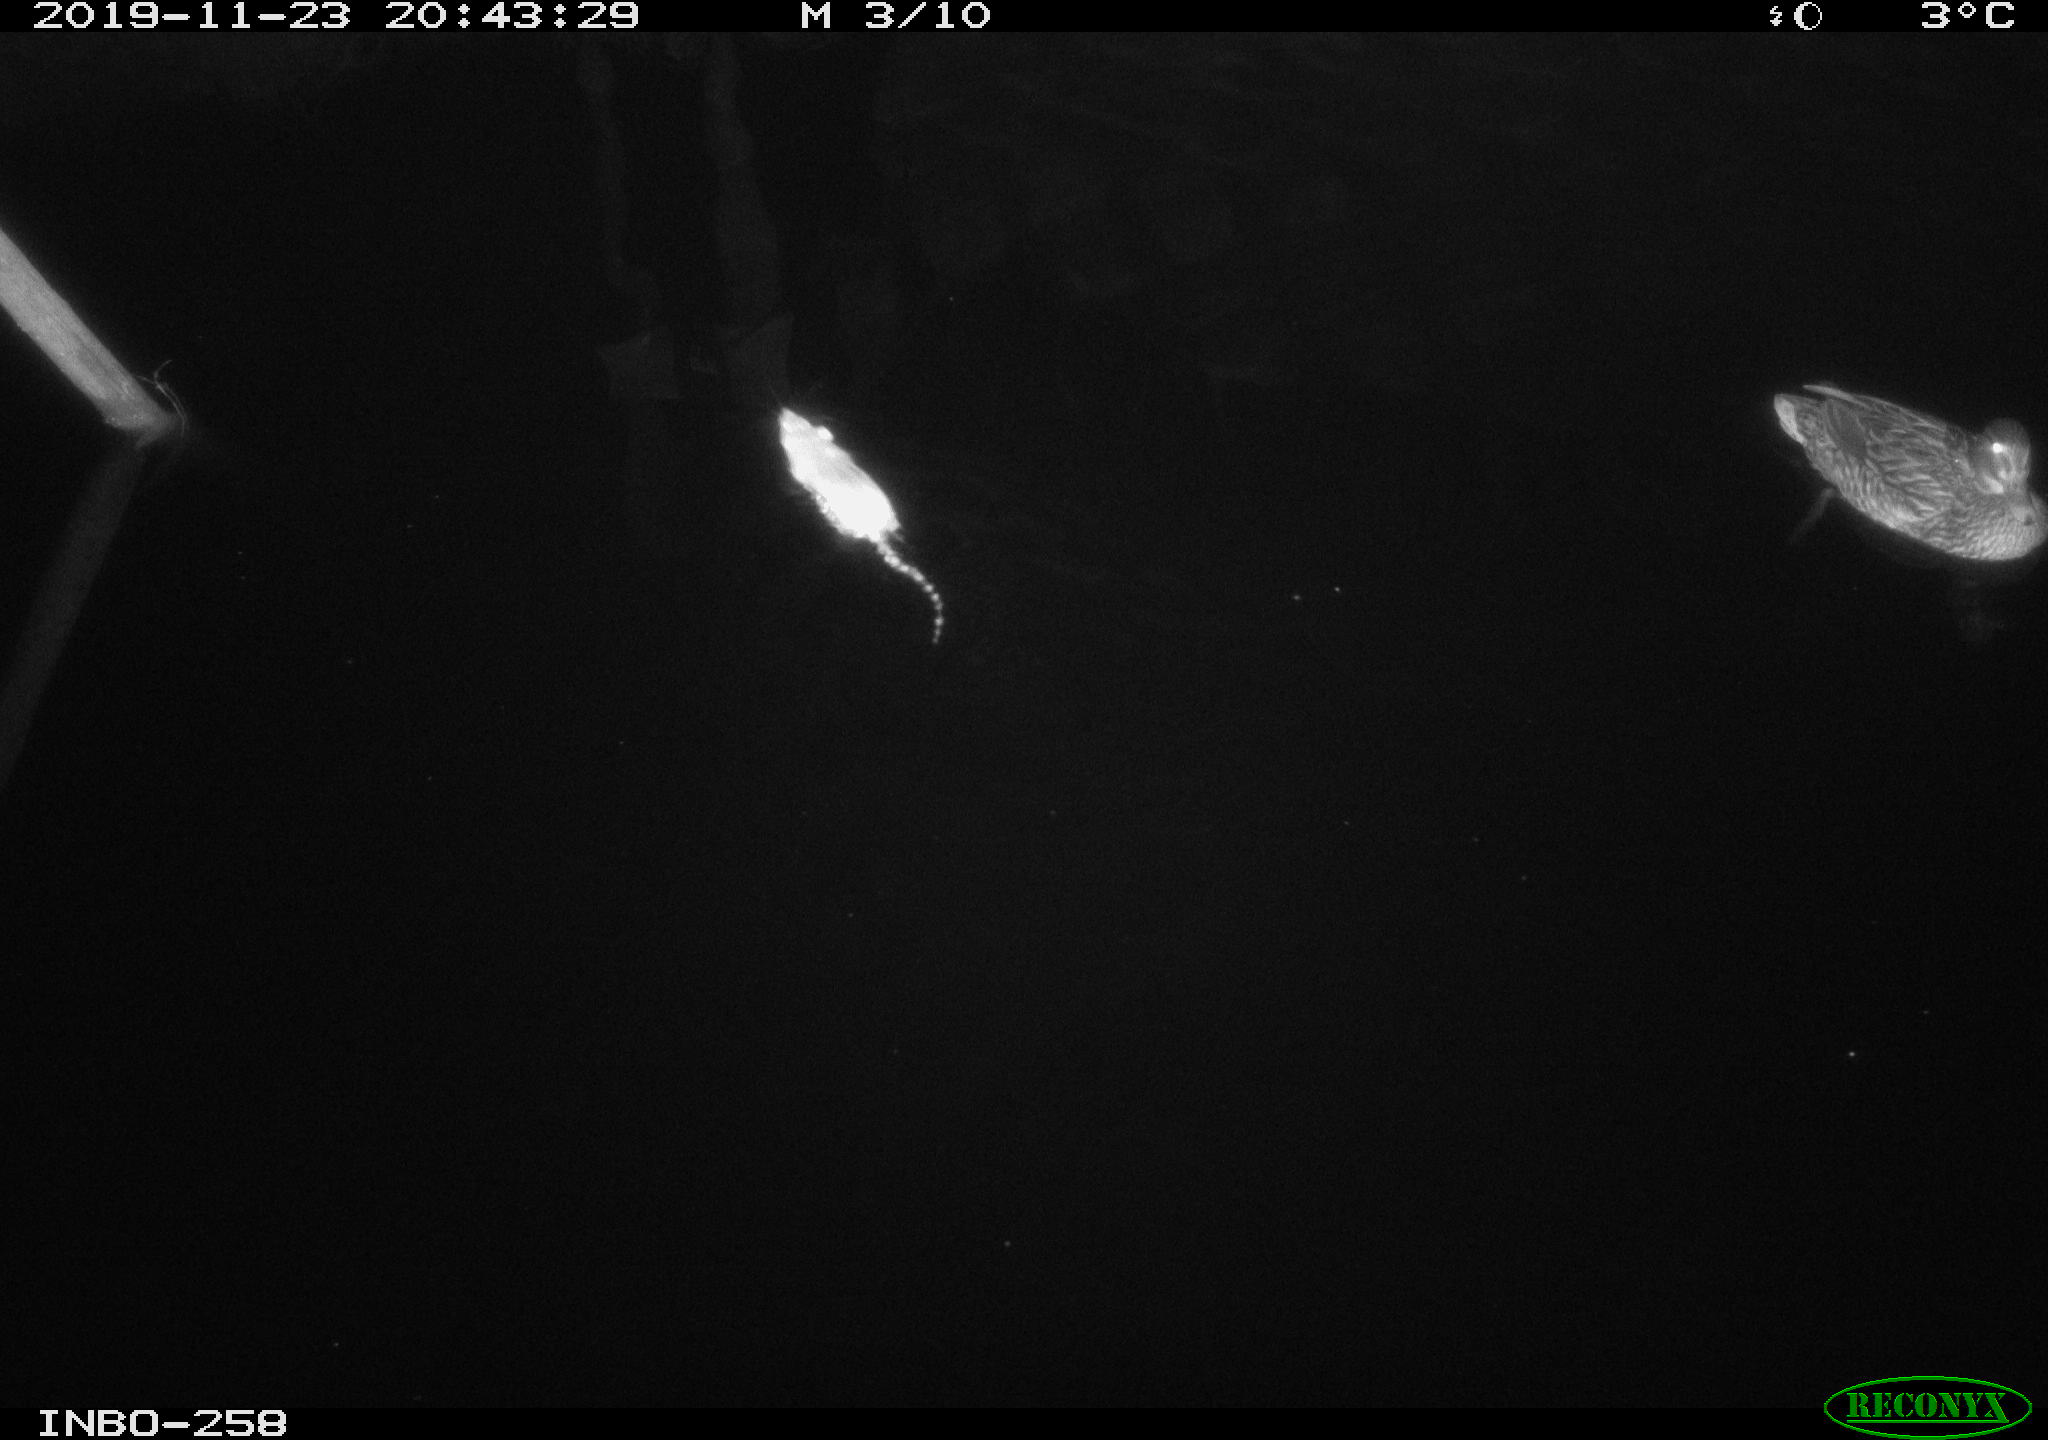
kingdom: Animalia
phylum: Chordata
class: Mammalia
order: Rodentia
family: Muridae
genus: Rattus
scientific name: Rattus norvegicus
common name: Brown rat
